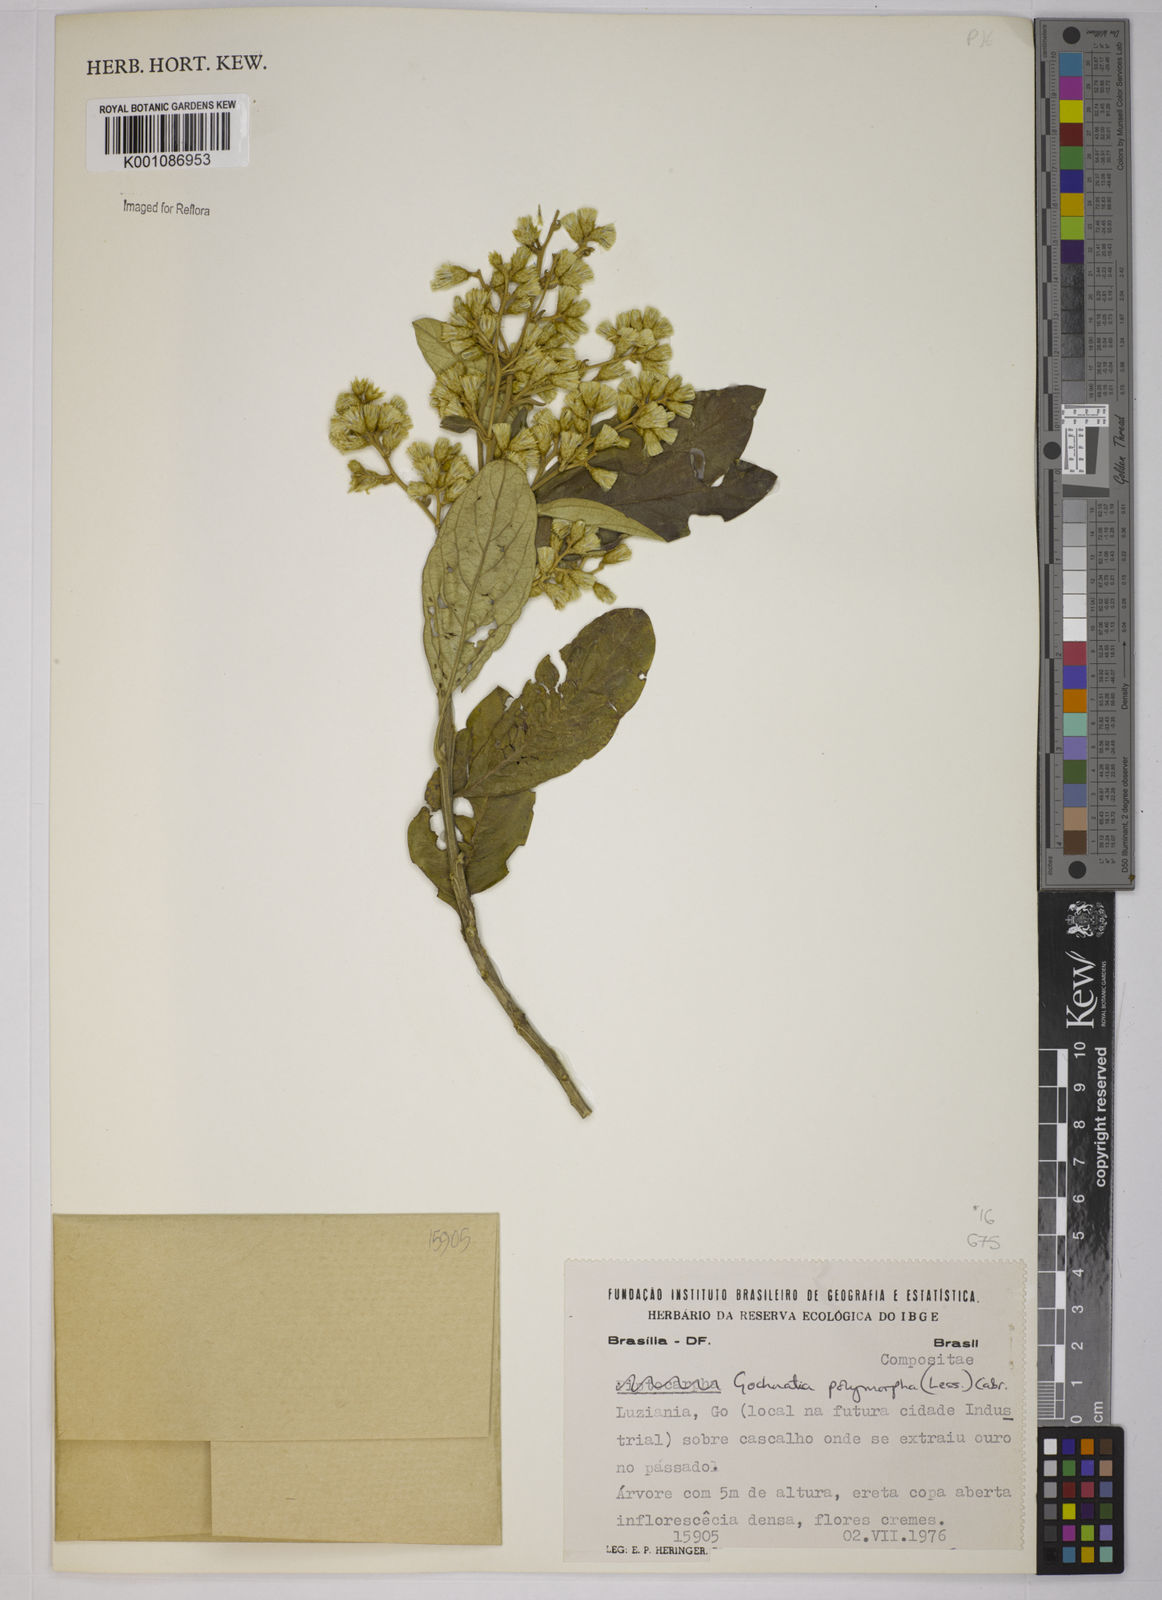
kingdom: Plantae
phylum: Tracheophyta
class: Magnoliopsida
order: Asterales
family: Asteraceae
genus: Moquiniastrum
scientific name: Moquiniastrum polymorphum
